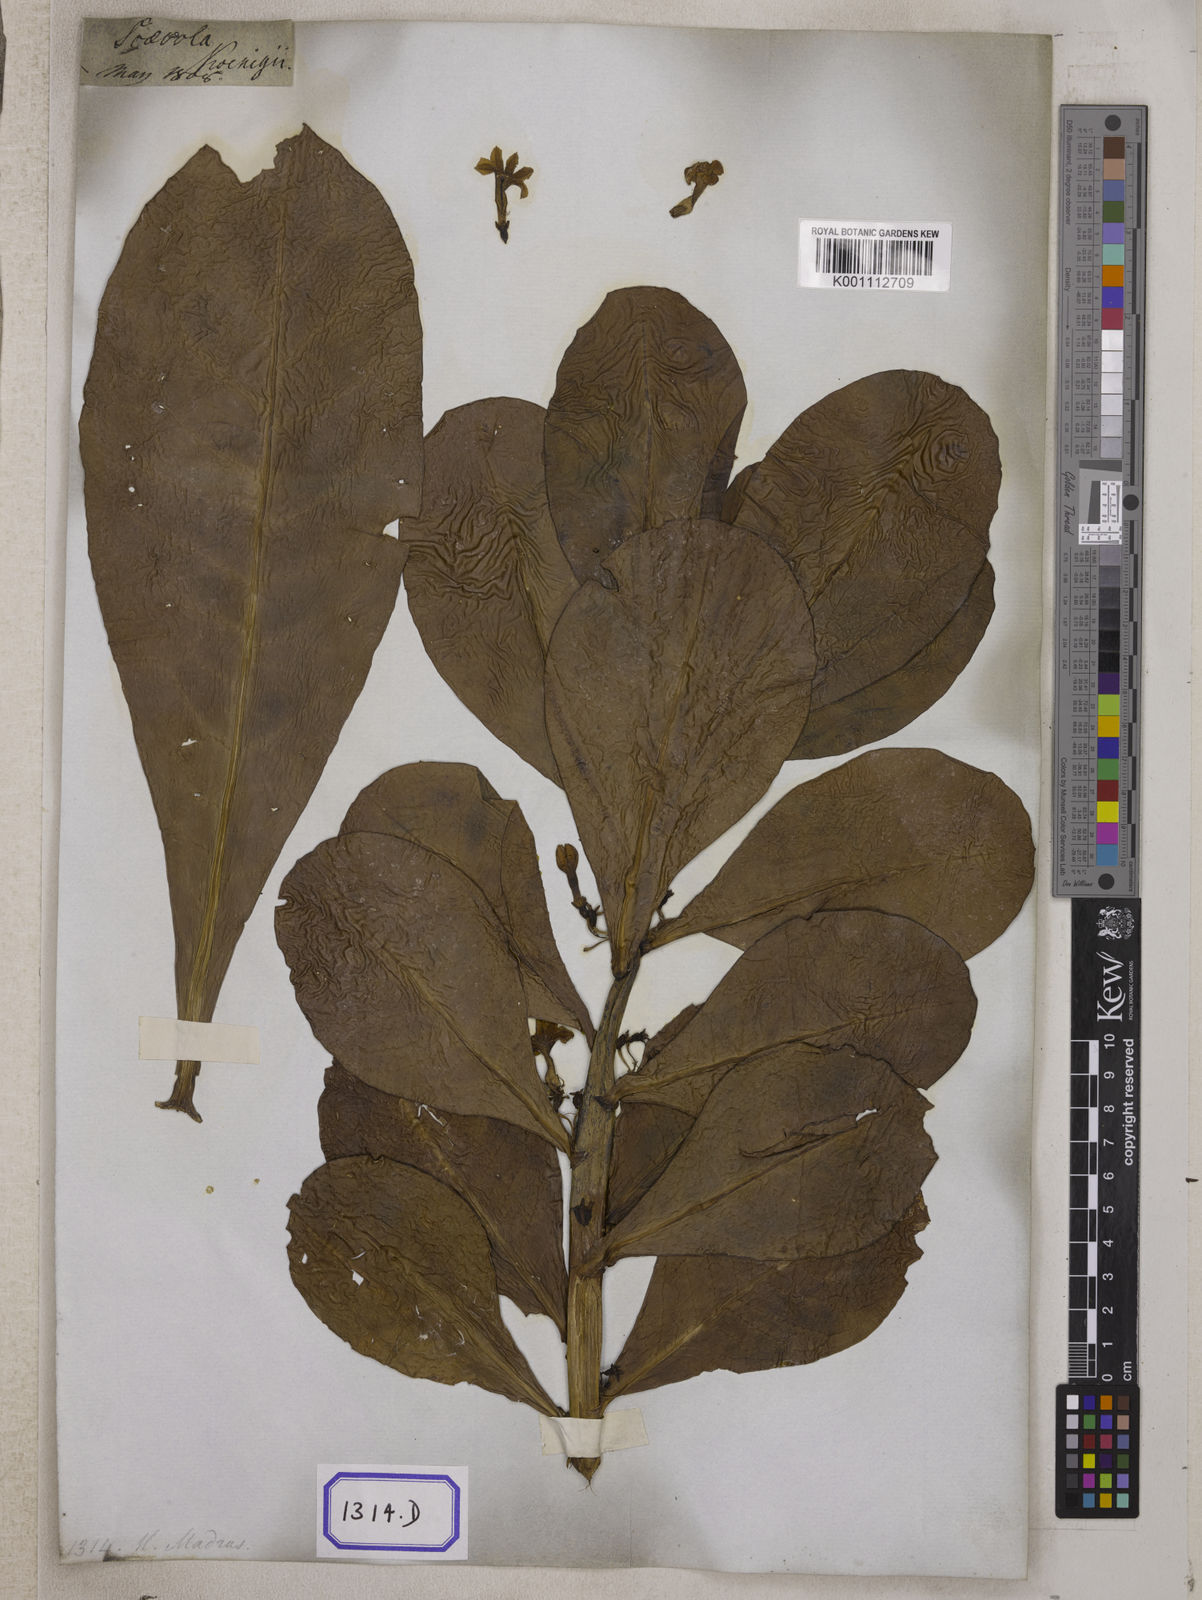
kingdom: Plantae
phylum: Tracheophyta
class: Magnoliopsida
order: Asterales
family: Goodeniaceae
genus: Scaevola
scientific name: Scaevola taccada
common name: Sea lettucetree
